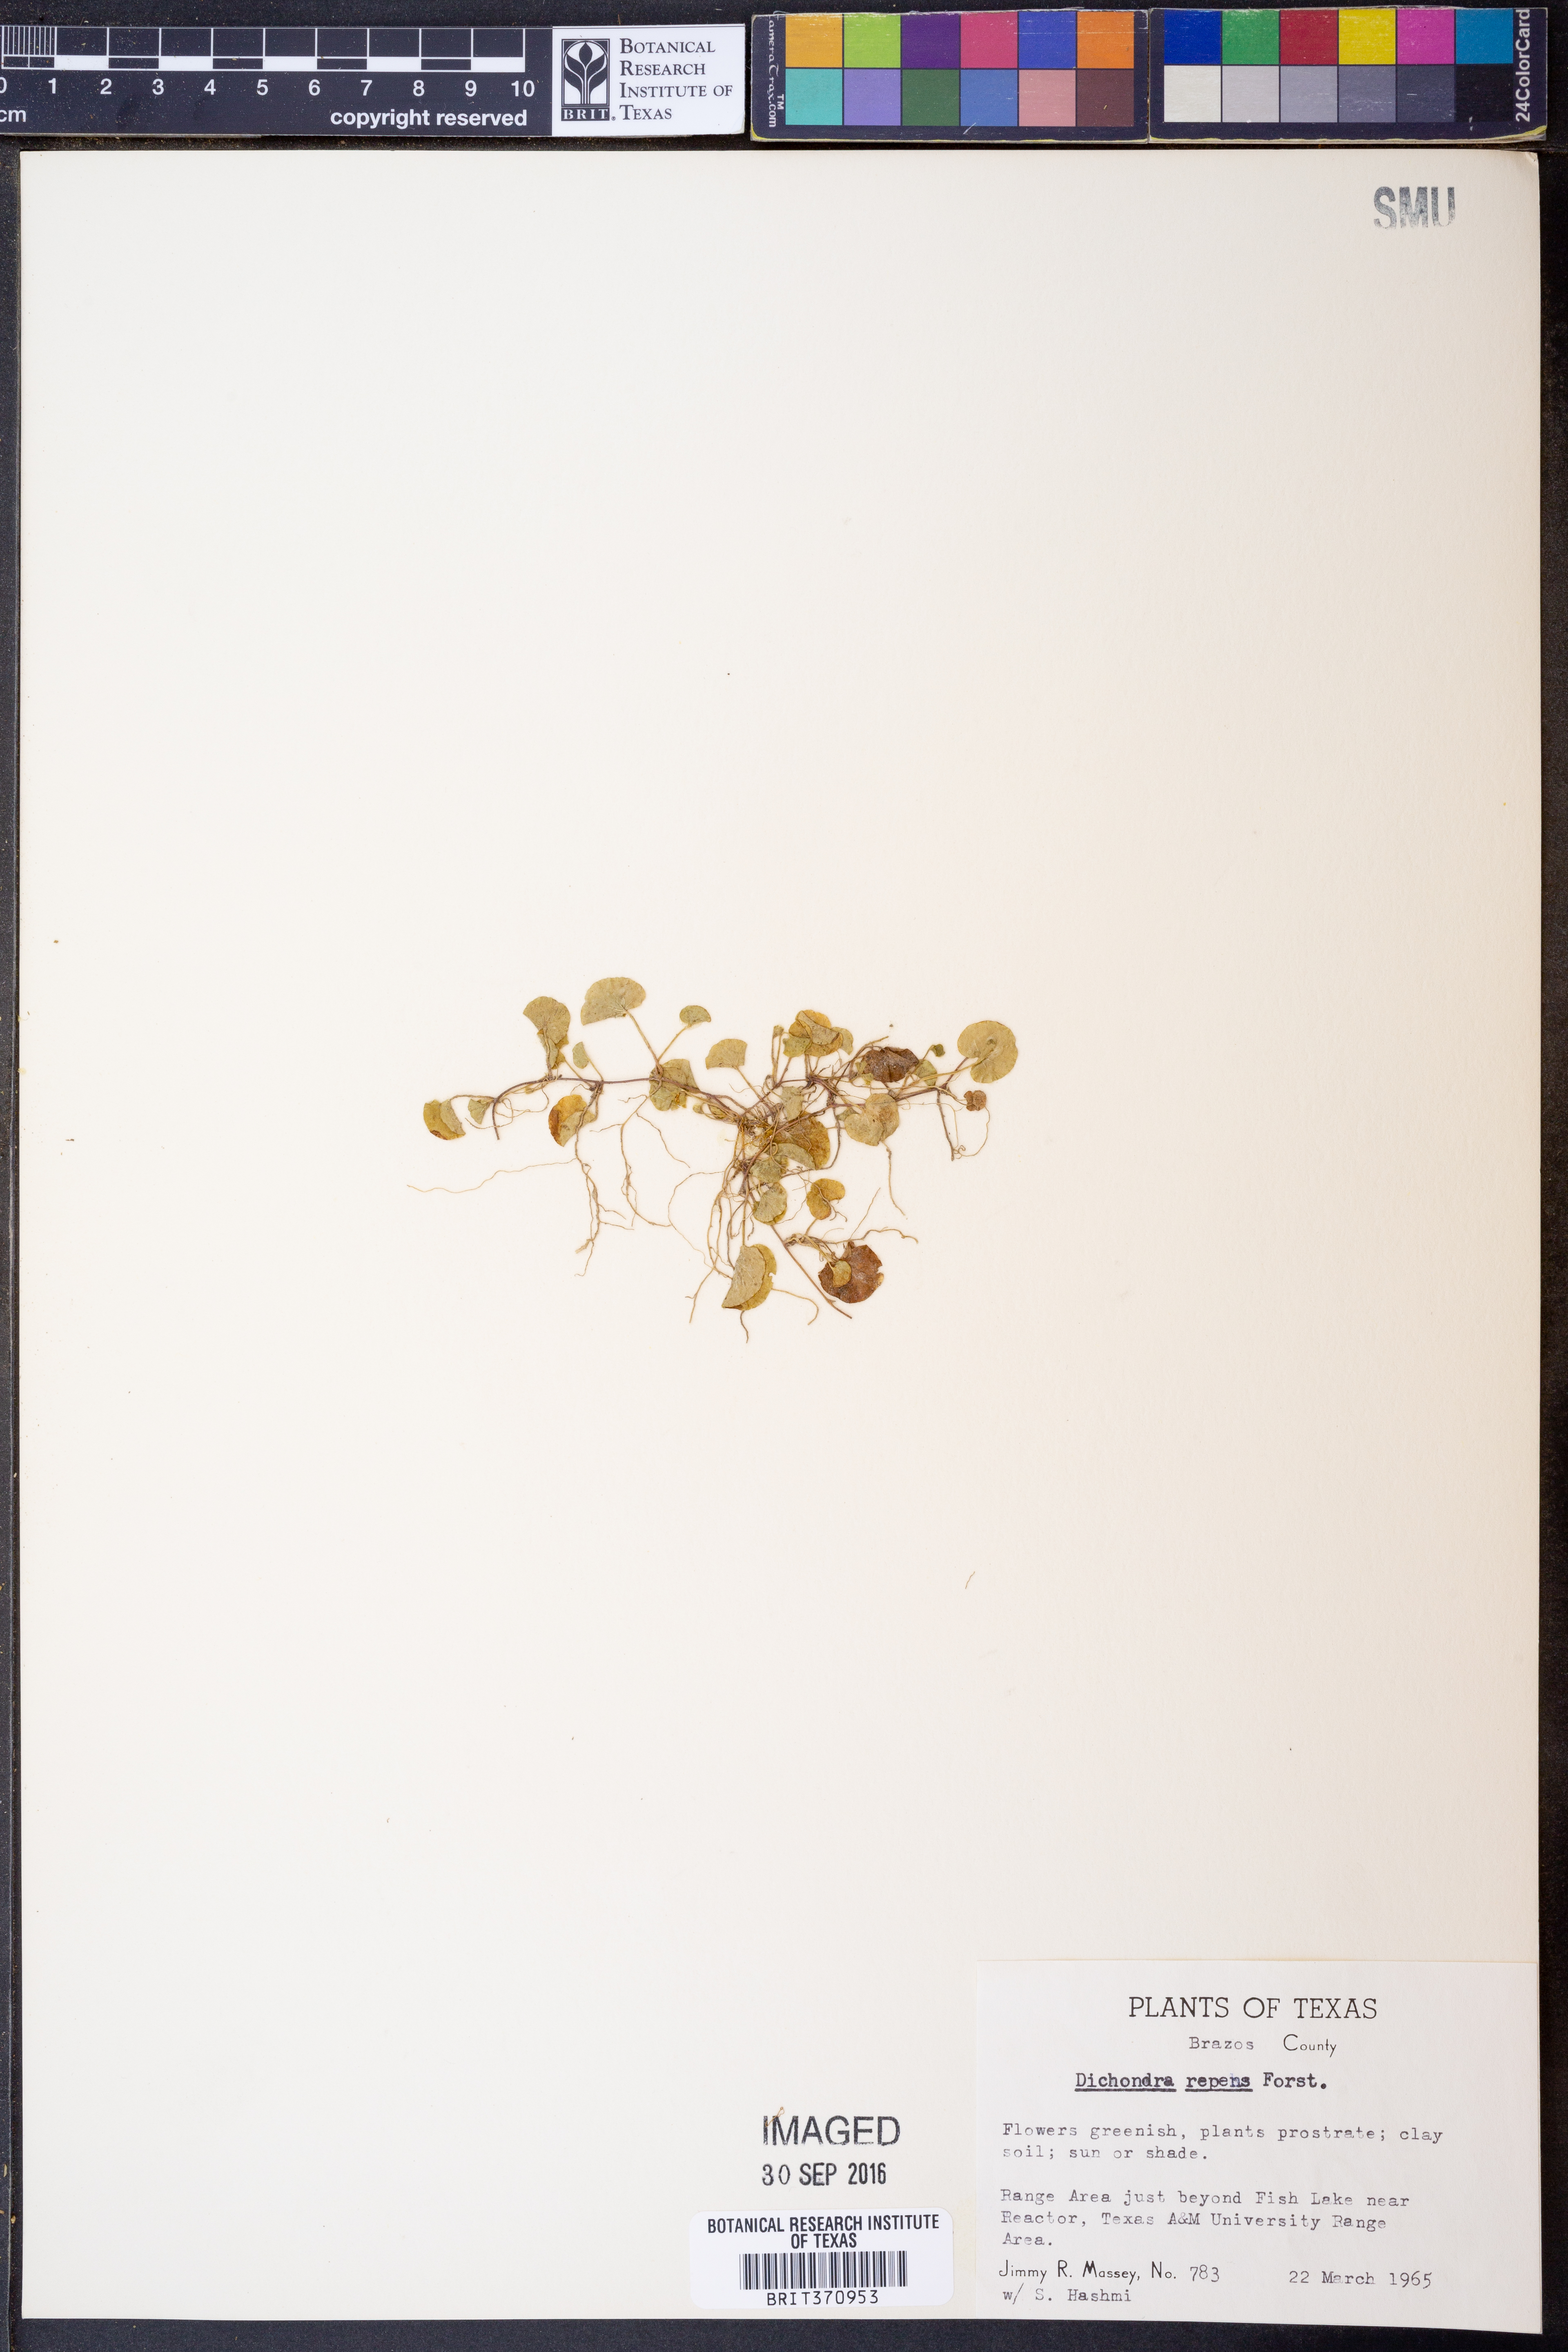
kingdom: Plantae
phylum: Tracheophyta
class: Magnoliopsida
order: Solanales
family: Convolvulaceae
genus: Dichondra
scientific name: Dichondra repens
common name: Kidneyweed
